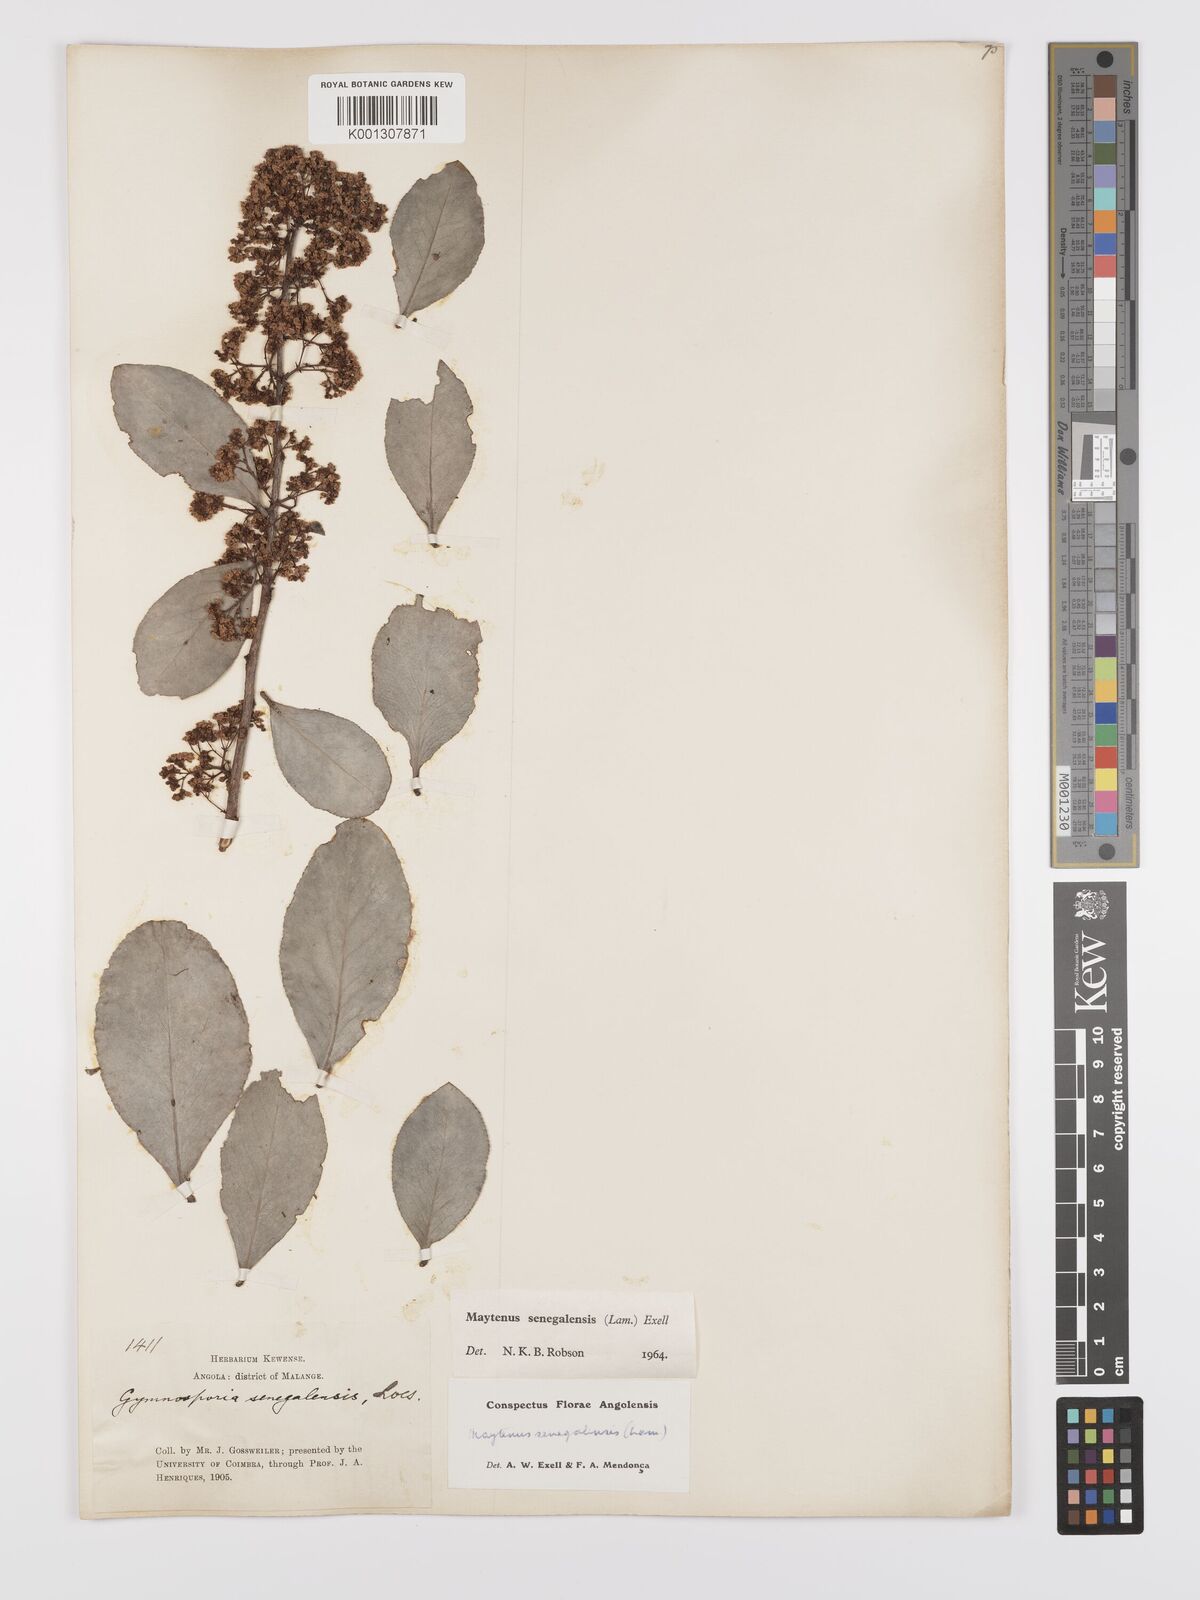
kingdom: Plantae
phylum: Tracheophyta
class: Magnoliopsida
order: Celastrales
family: Celastraceae
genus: Gymnosporia
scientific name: Gymnosporia senegalensis
